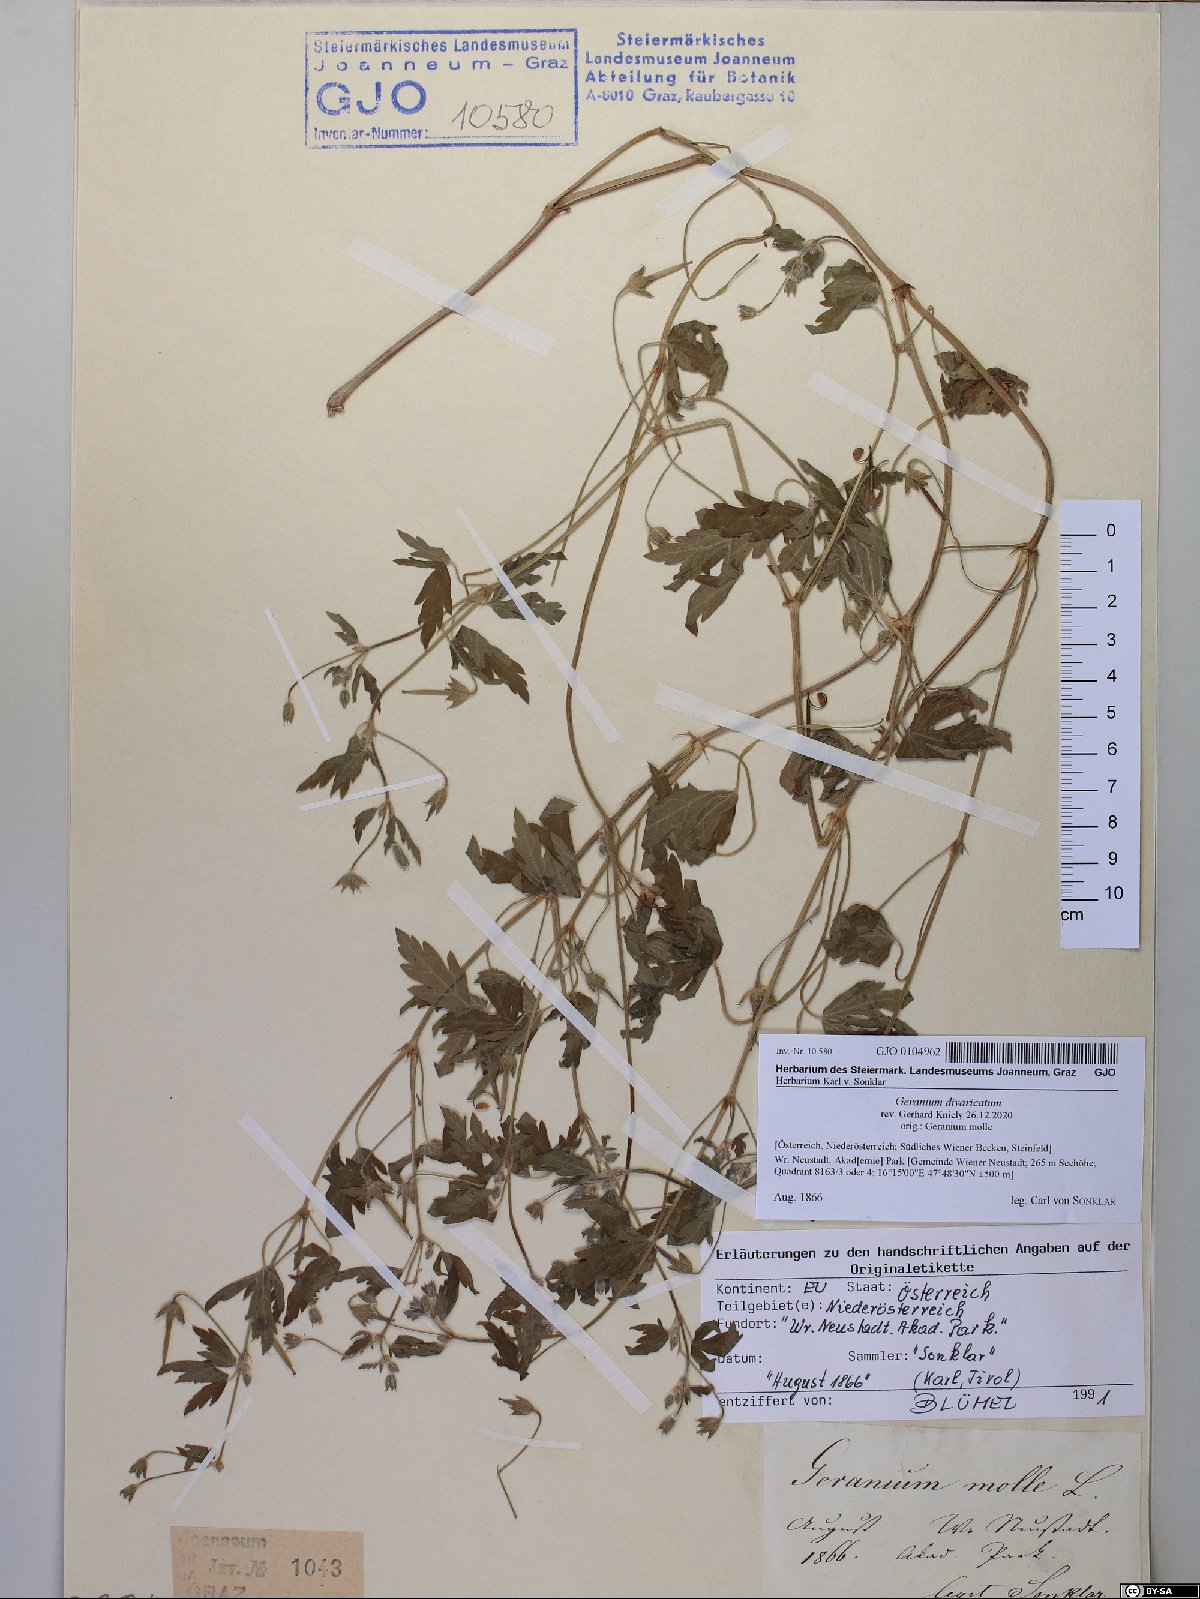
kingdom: Plantae
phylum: Tracheophyta
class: Magnoliopsida
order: Geraniales
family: Geraniaceae
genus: Geranium
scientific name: Geranium divaricatum
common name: Spreading crane's-bill
